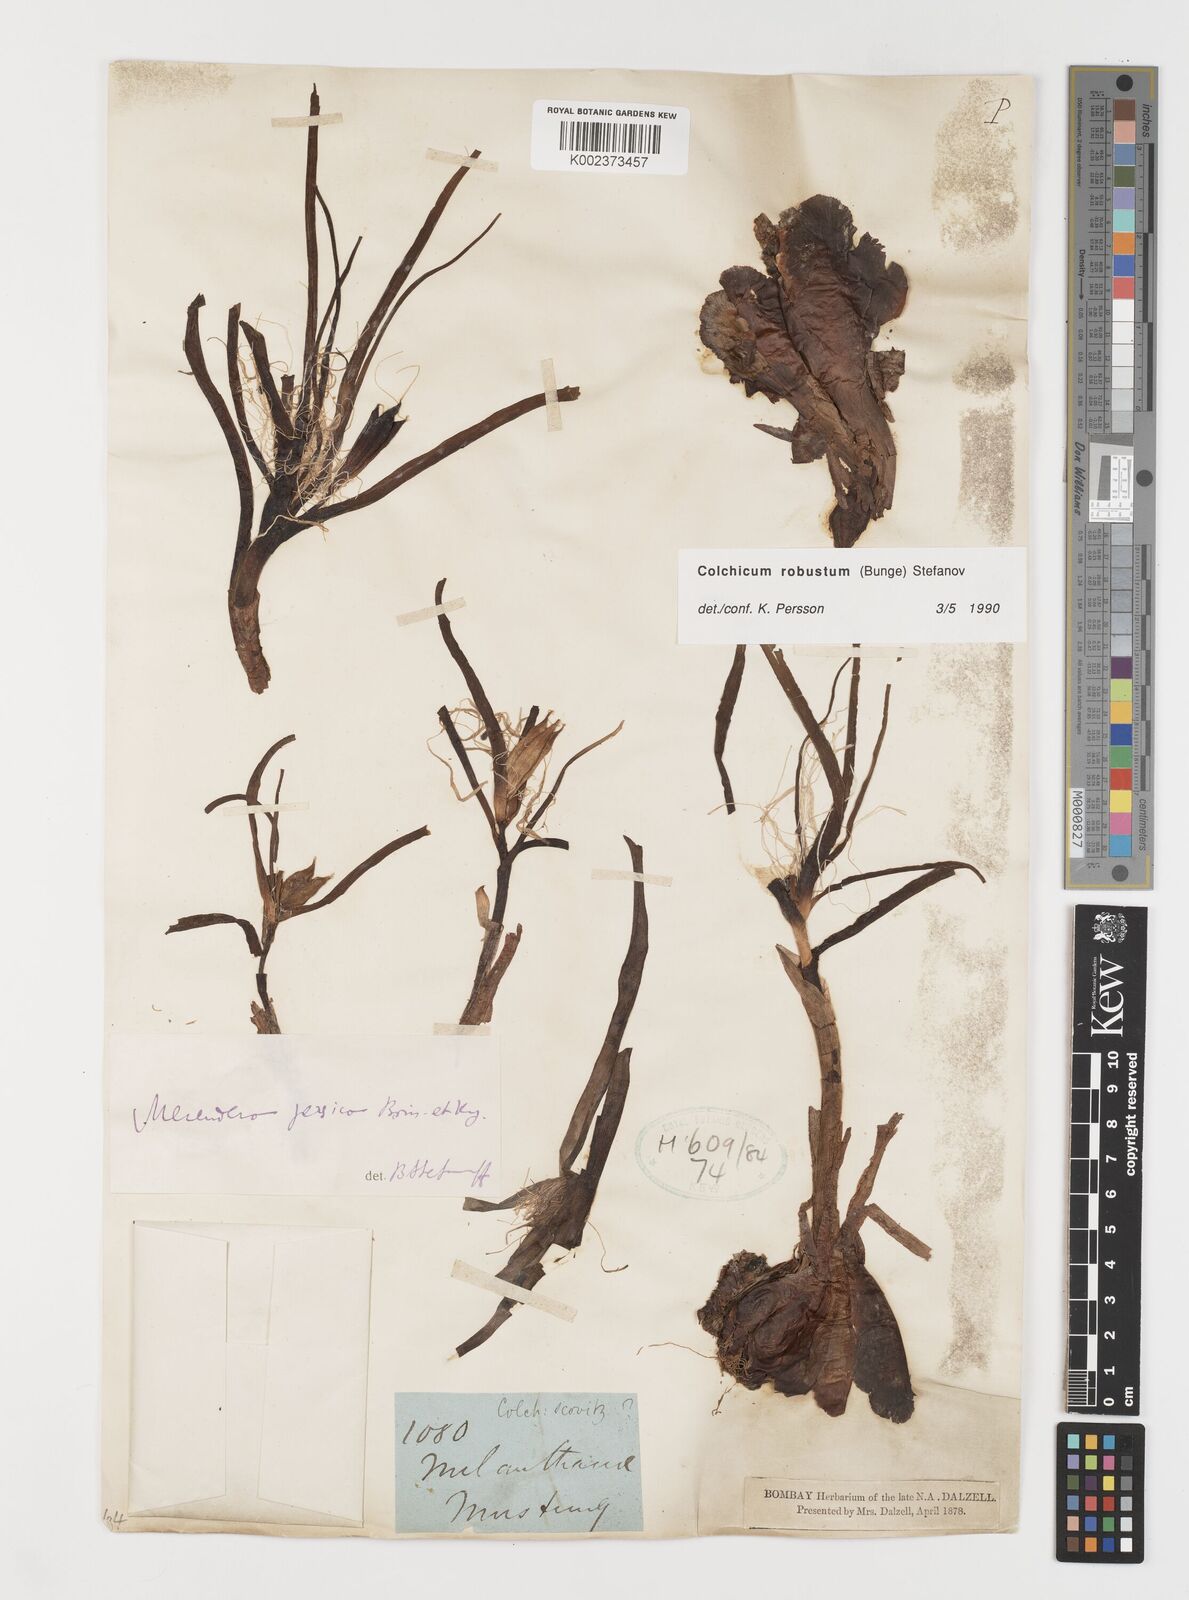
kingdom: Plantae
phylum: Tracheophyta
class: Liliopsida
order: Liliales
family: Colchicaceae
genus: Colchicum
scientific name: Colchicum robustum
